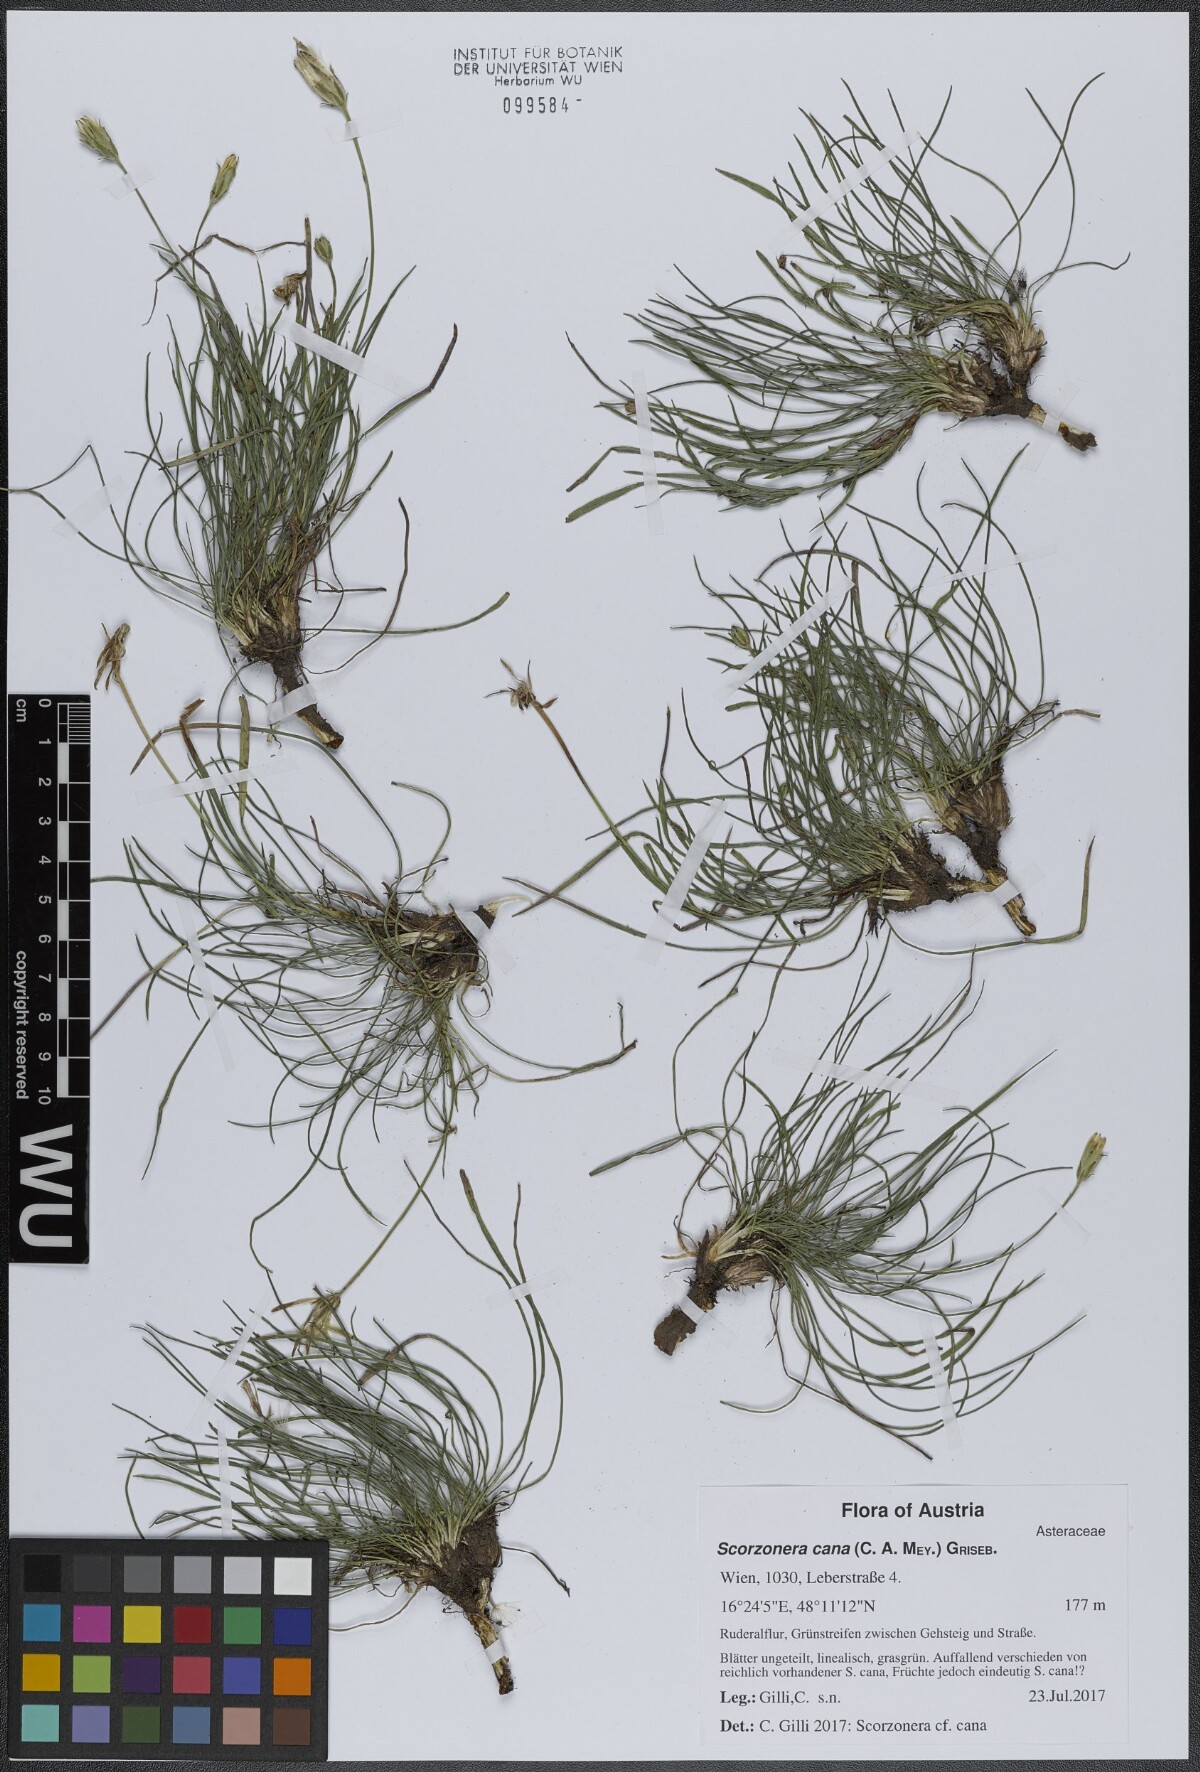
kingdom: Plantae
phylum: Tracheophyta
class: Magnoliopsida
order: Asterales
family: Asteraceae
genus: Scorzonera
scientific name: Scorzonera cana
